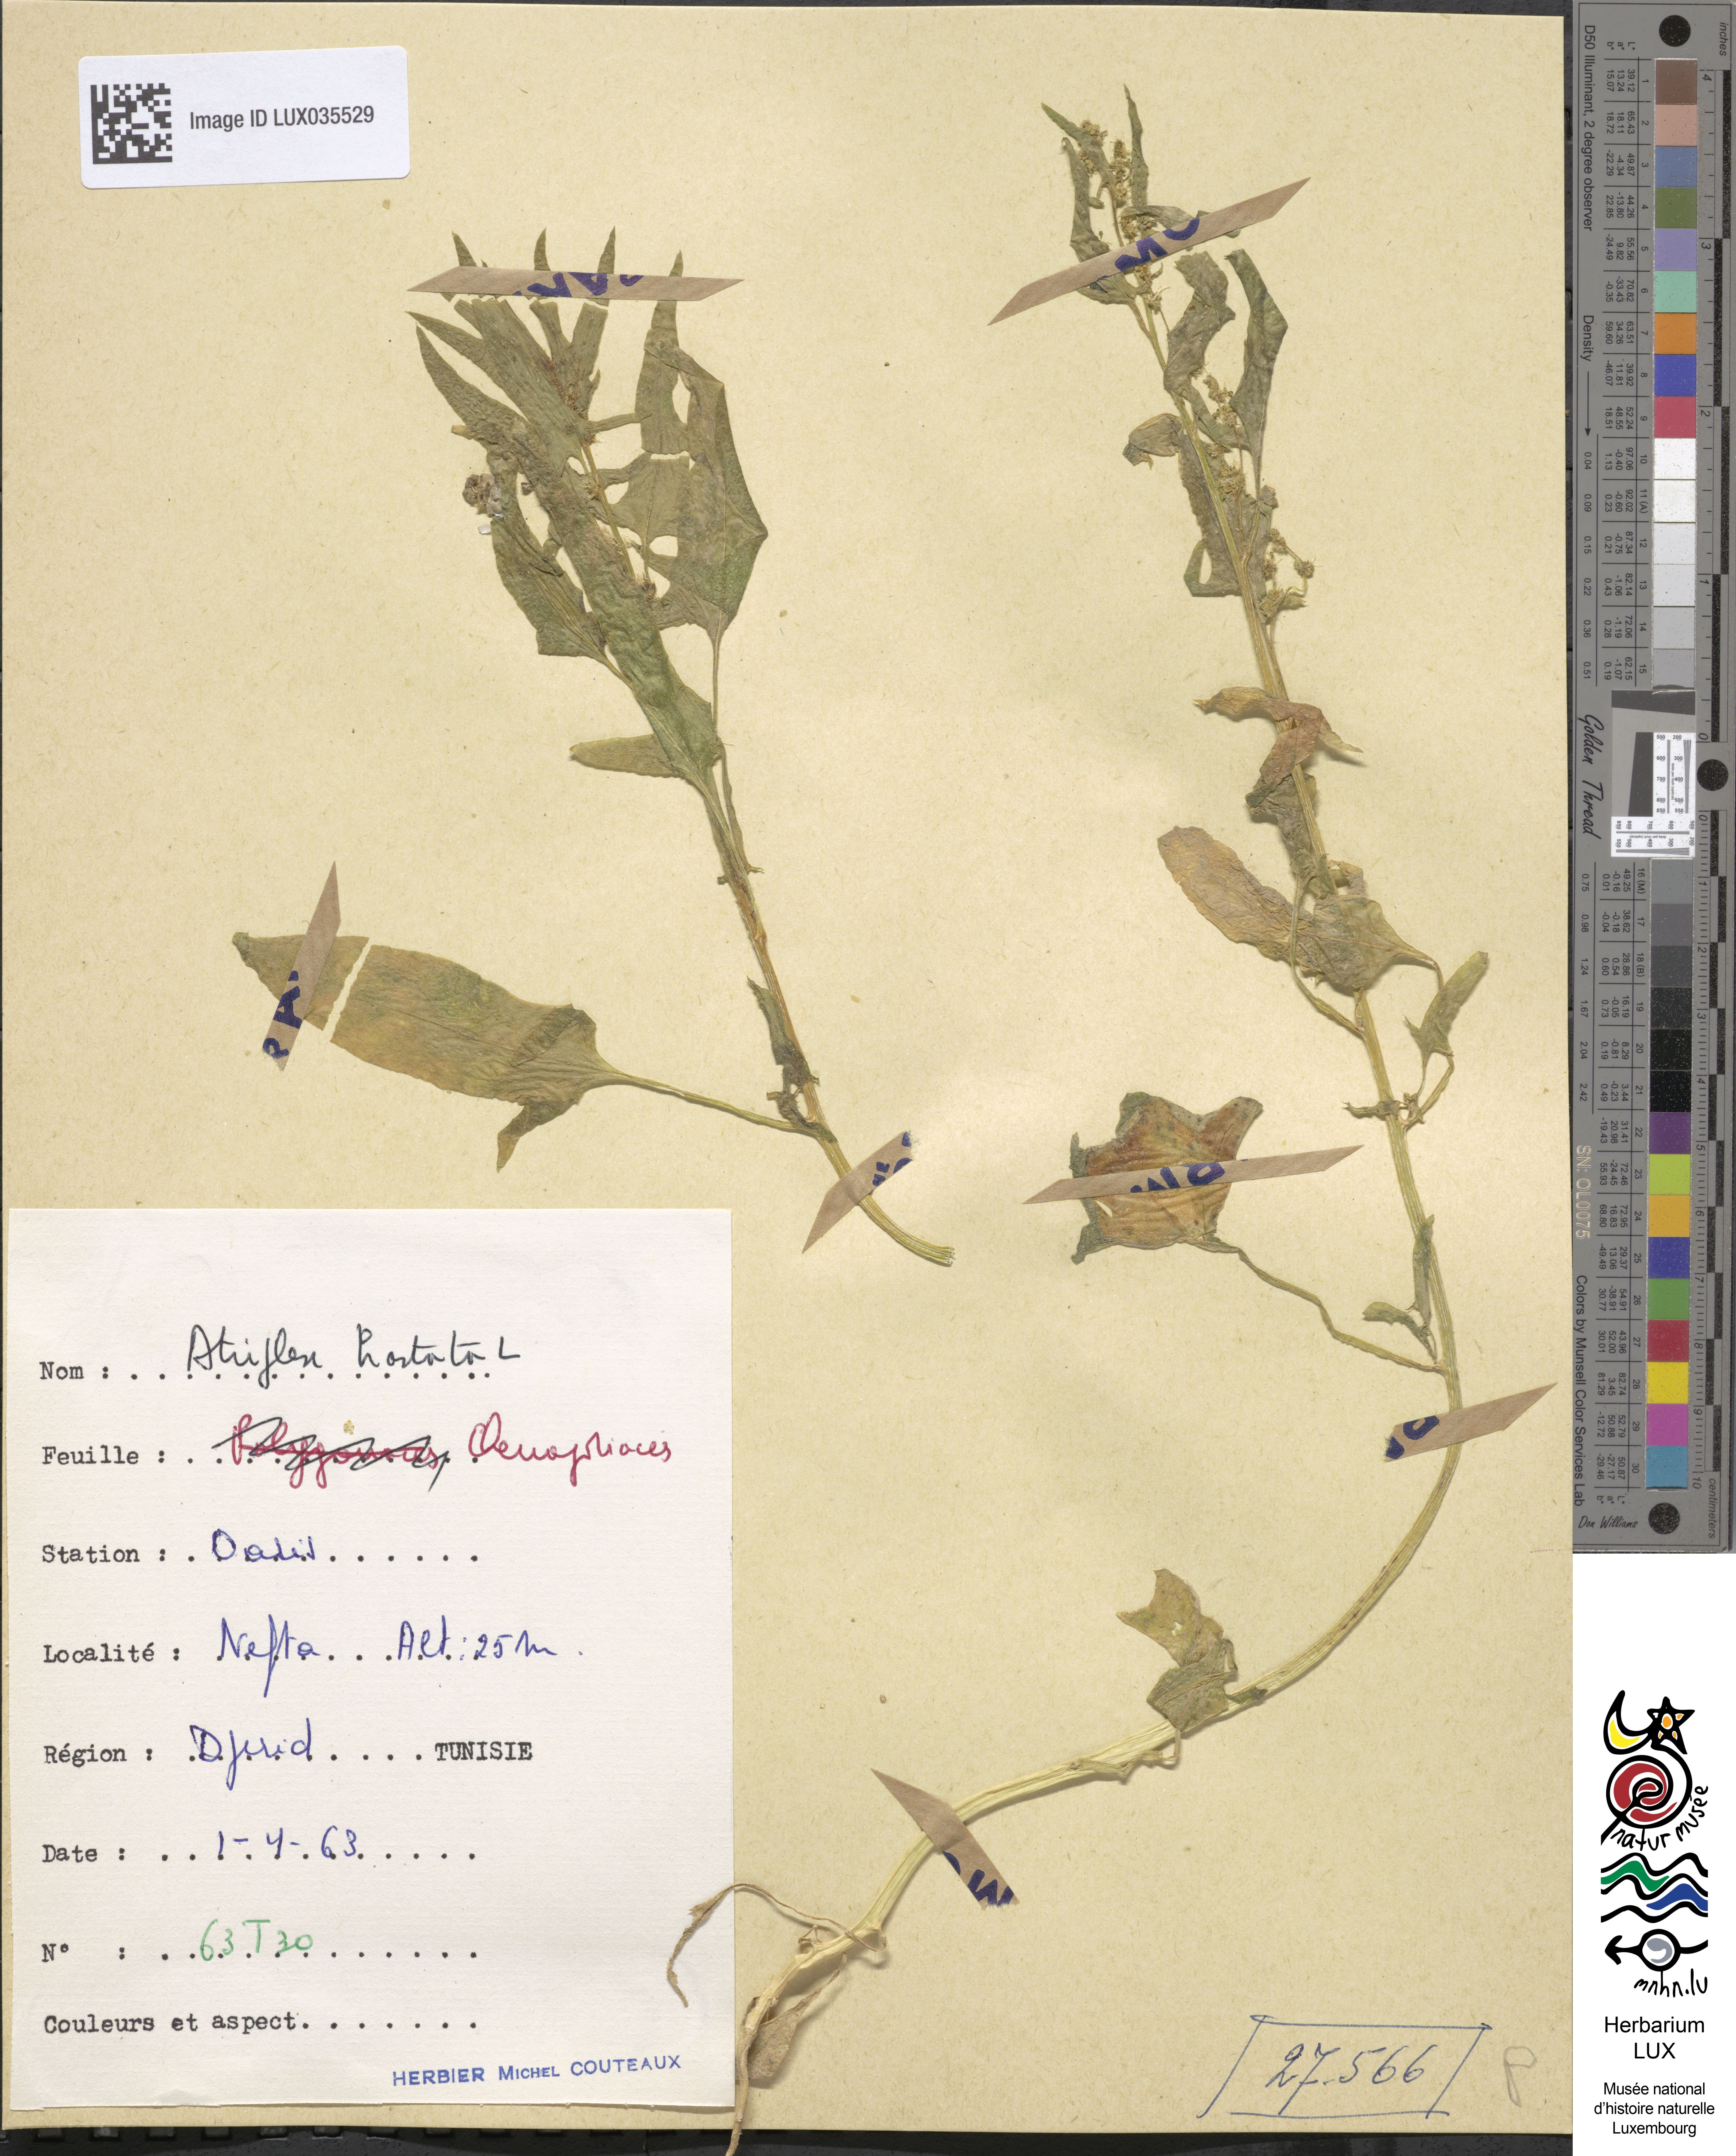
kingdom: Plantae
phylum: Tracheophyta
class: Magnoliopsida
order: Caryophyllales
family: Amaranthaceae
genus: Atriplex
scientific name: Atriplex calotheca
